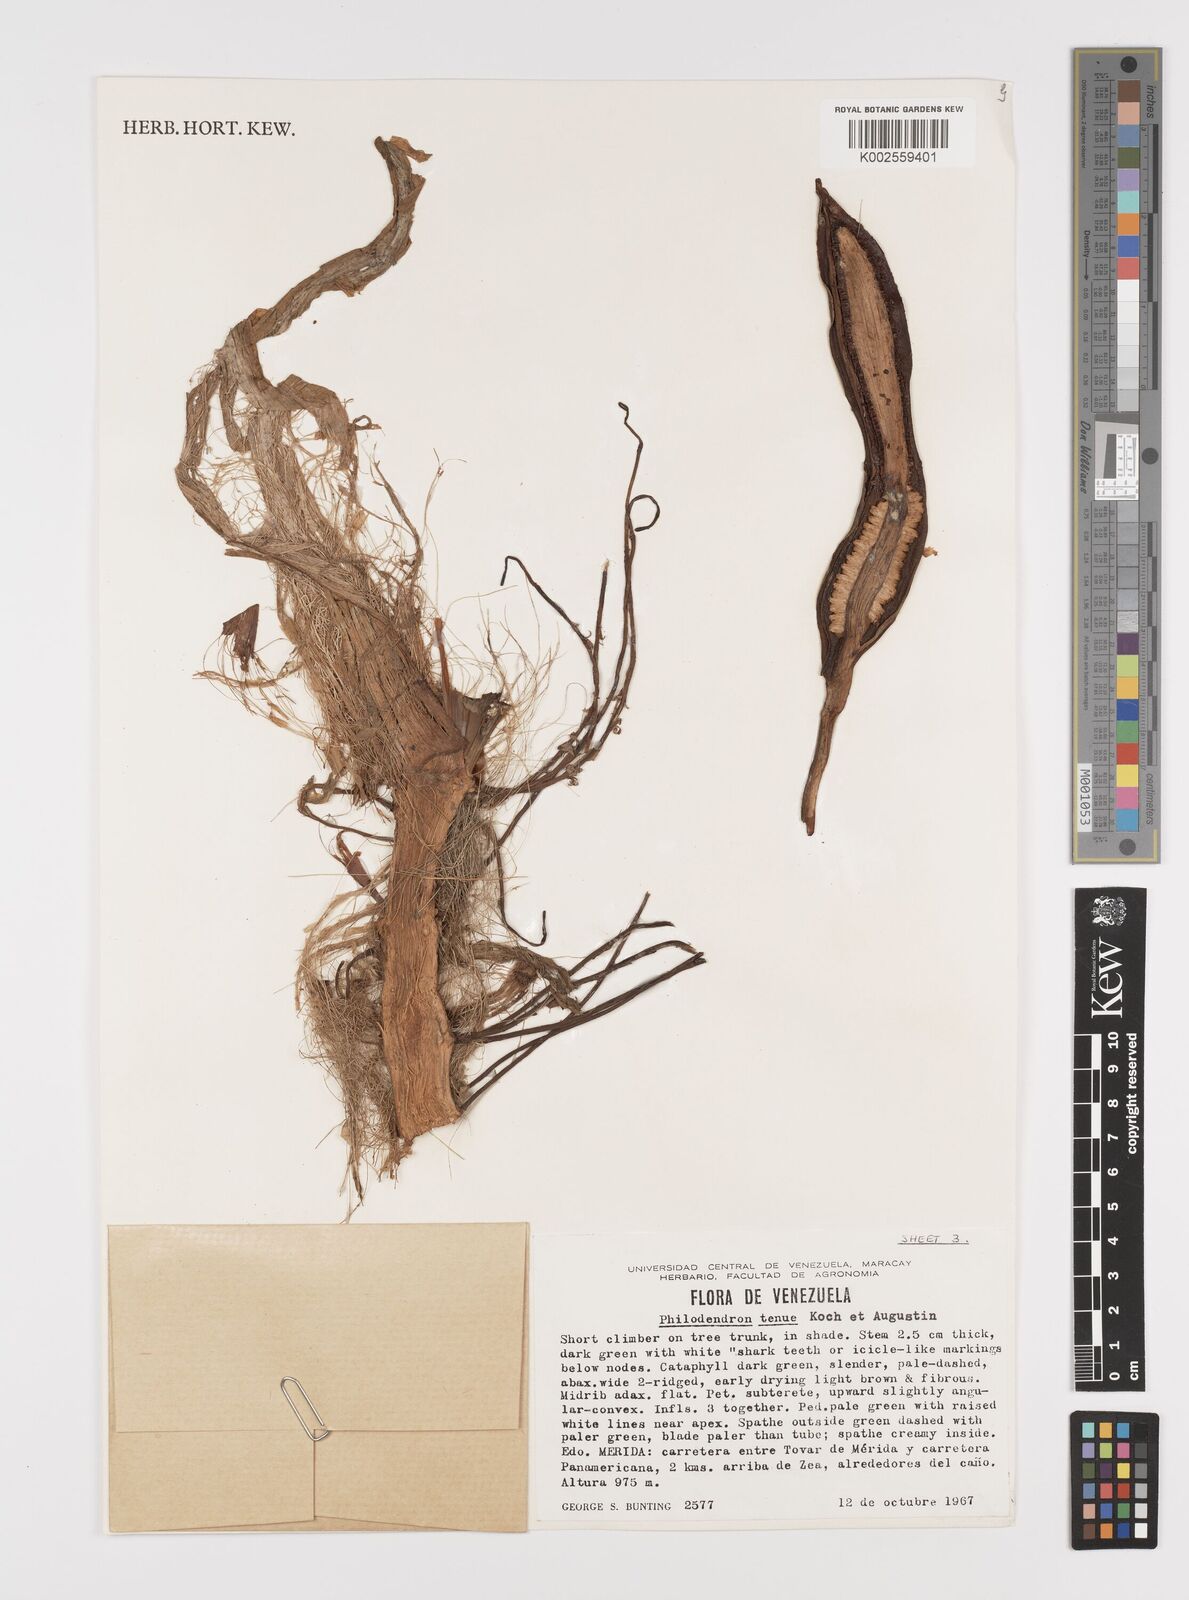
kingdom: Plantae
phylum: Tracheophyta
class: Liliopsida
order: Alismatales
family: Araceae
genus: Philodendron
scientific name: Philodendron tenue
